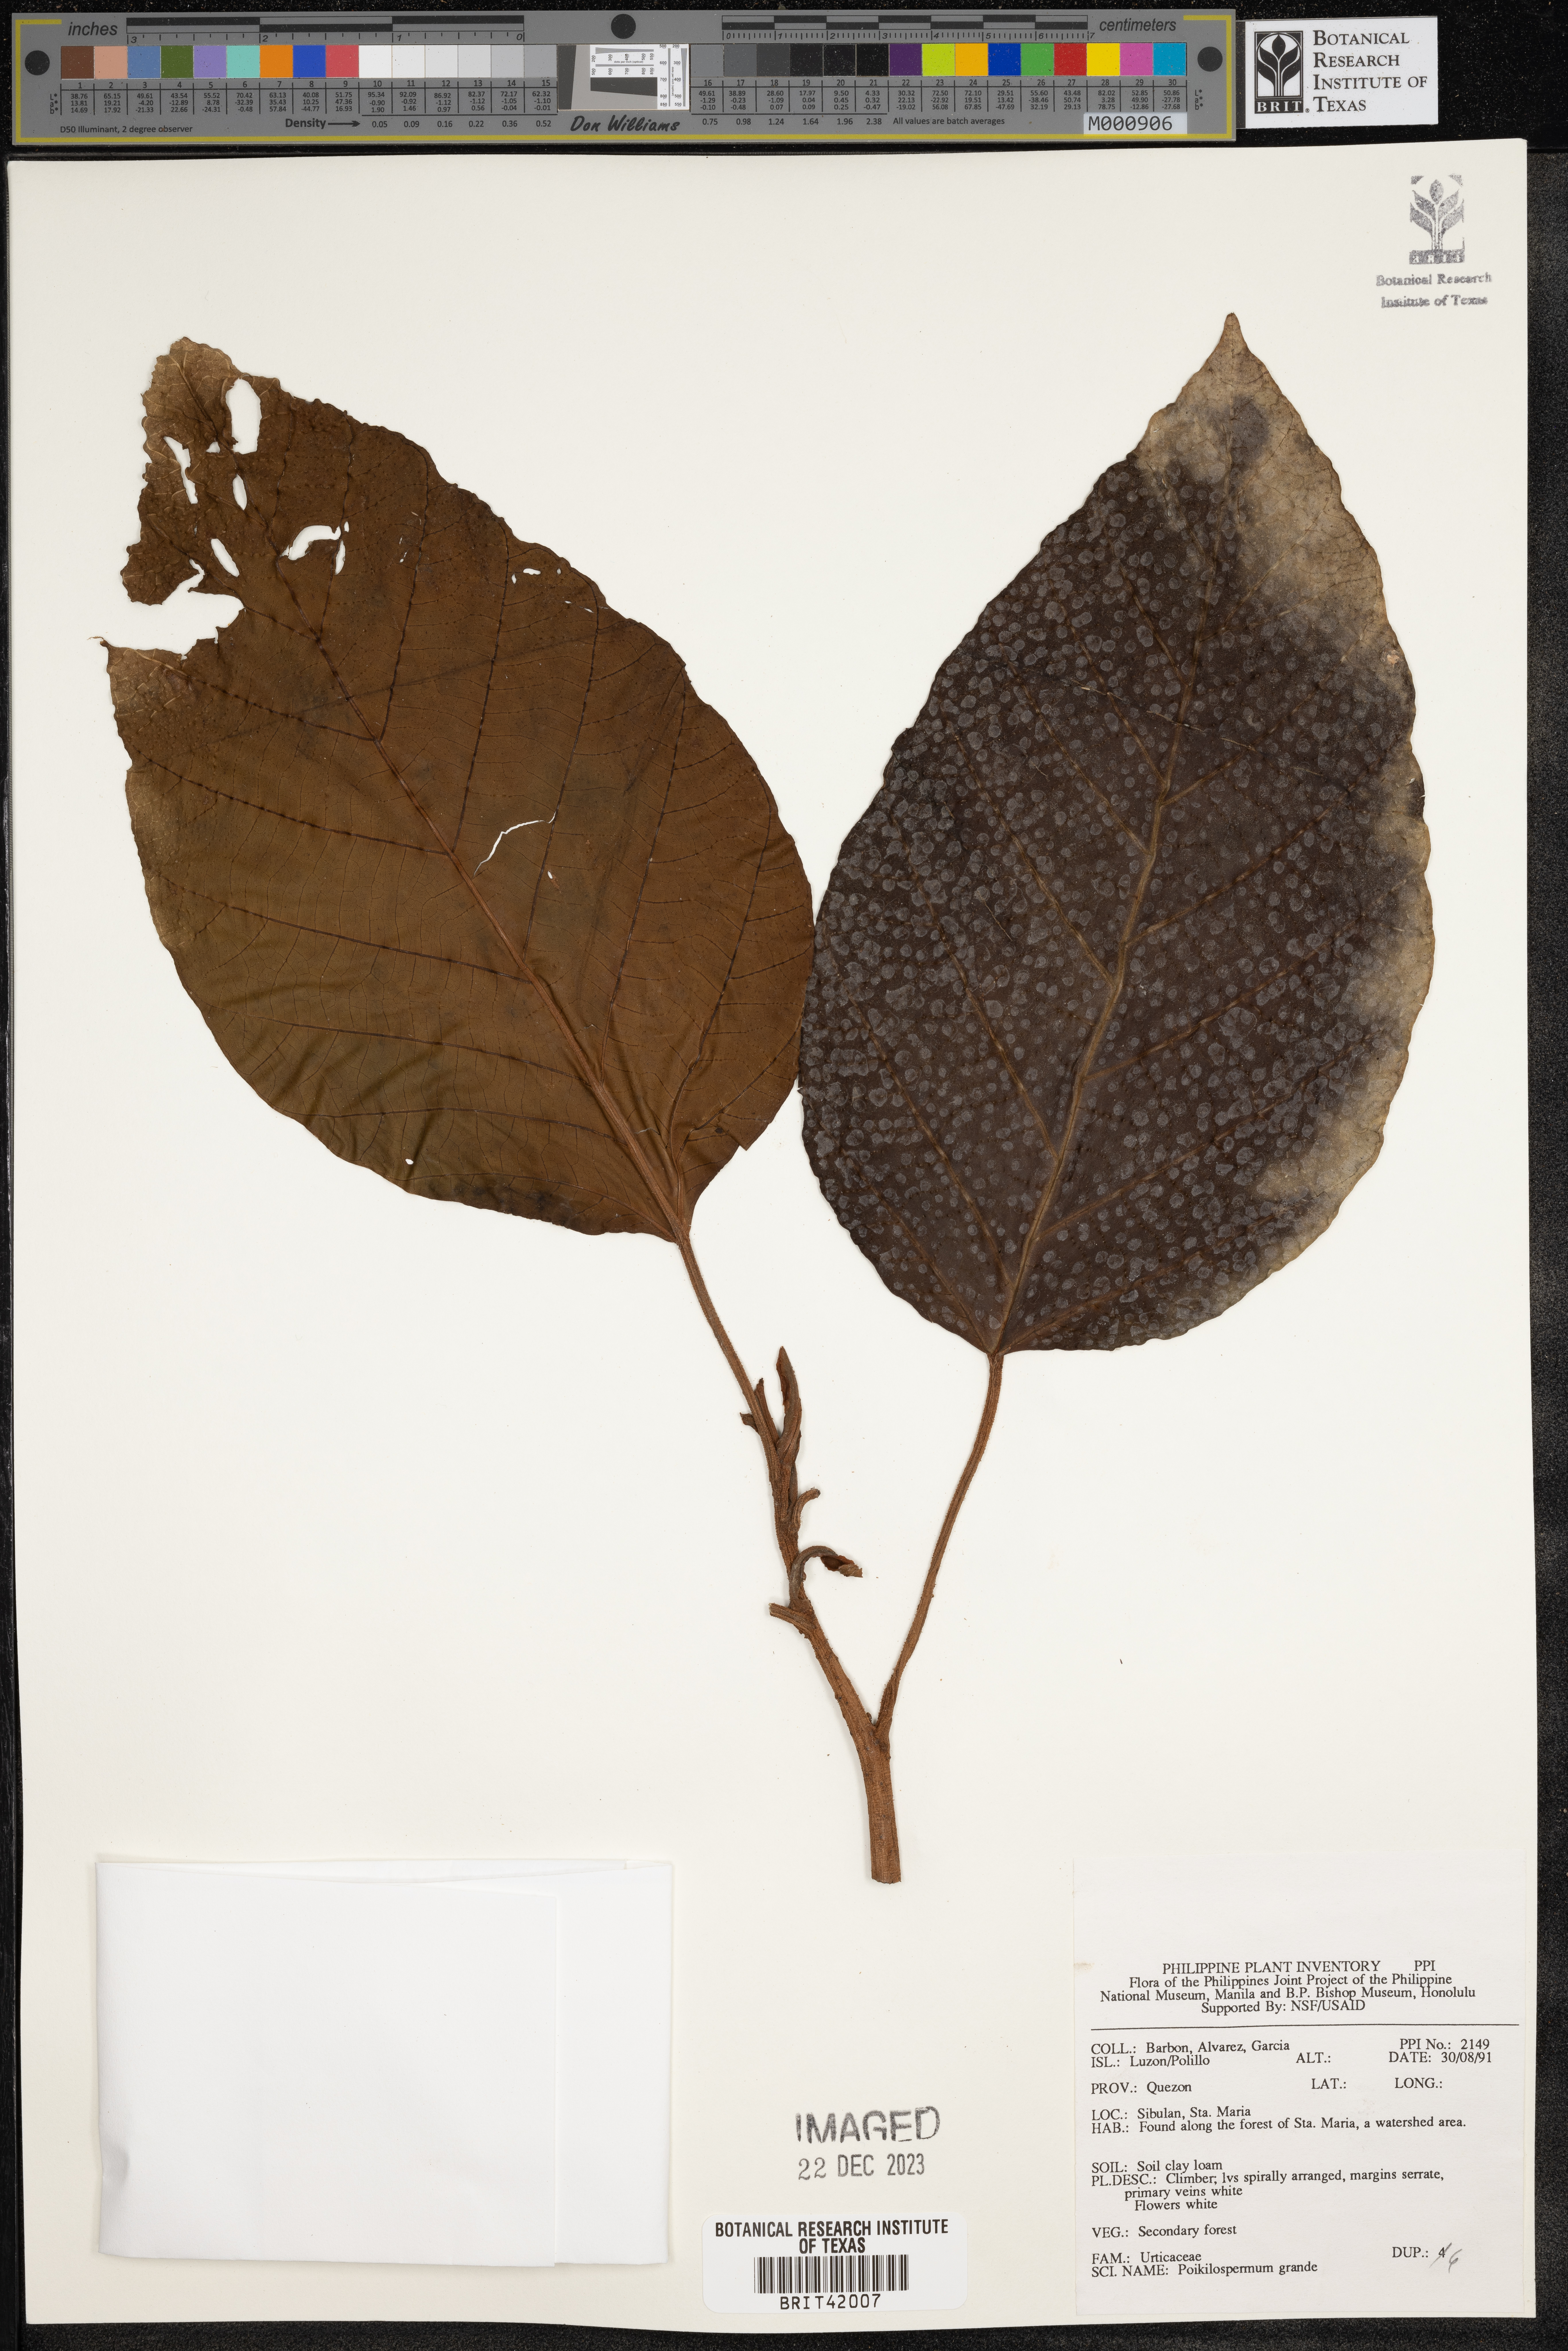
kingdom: Plantae
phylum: Tracheophyta
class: Magnoliopsida
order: Rosales
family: Urticaceae
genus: Poikilospermum
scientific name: Poikilospermum acuminatum
